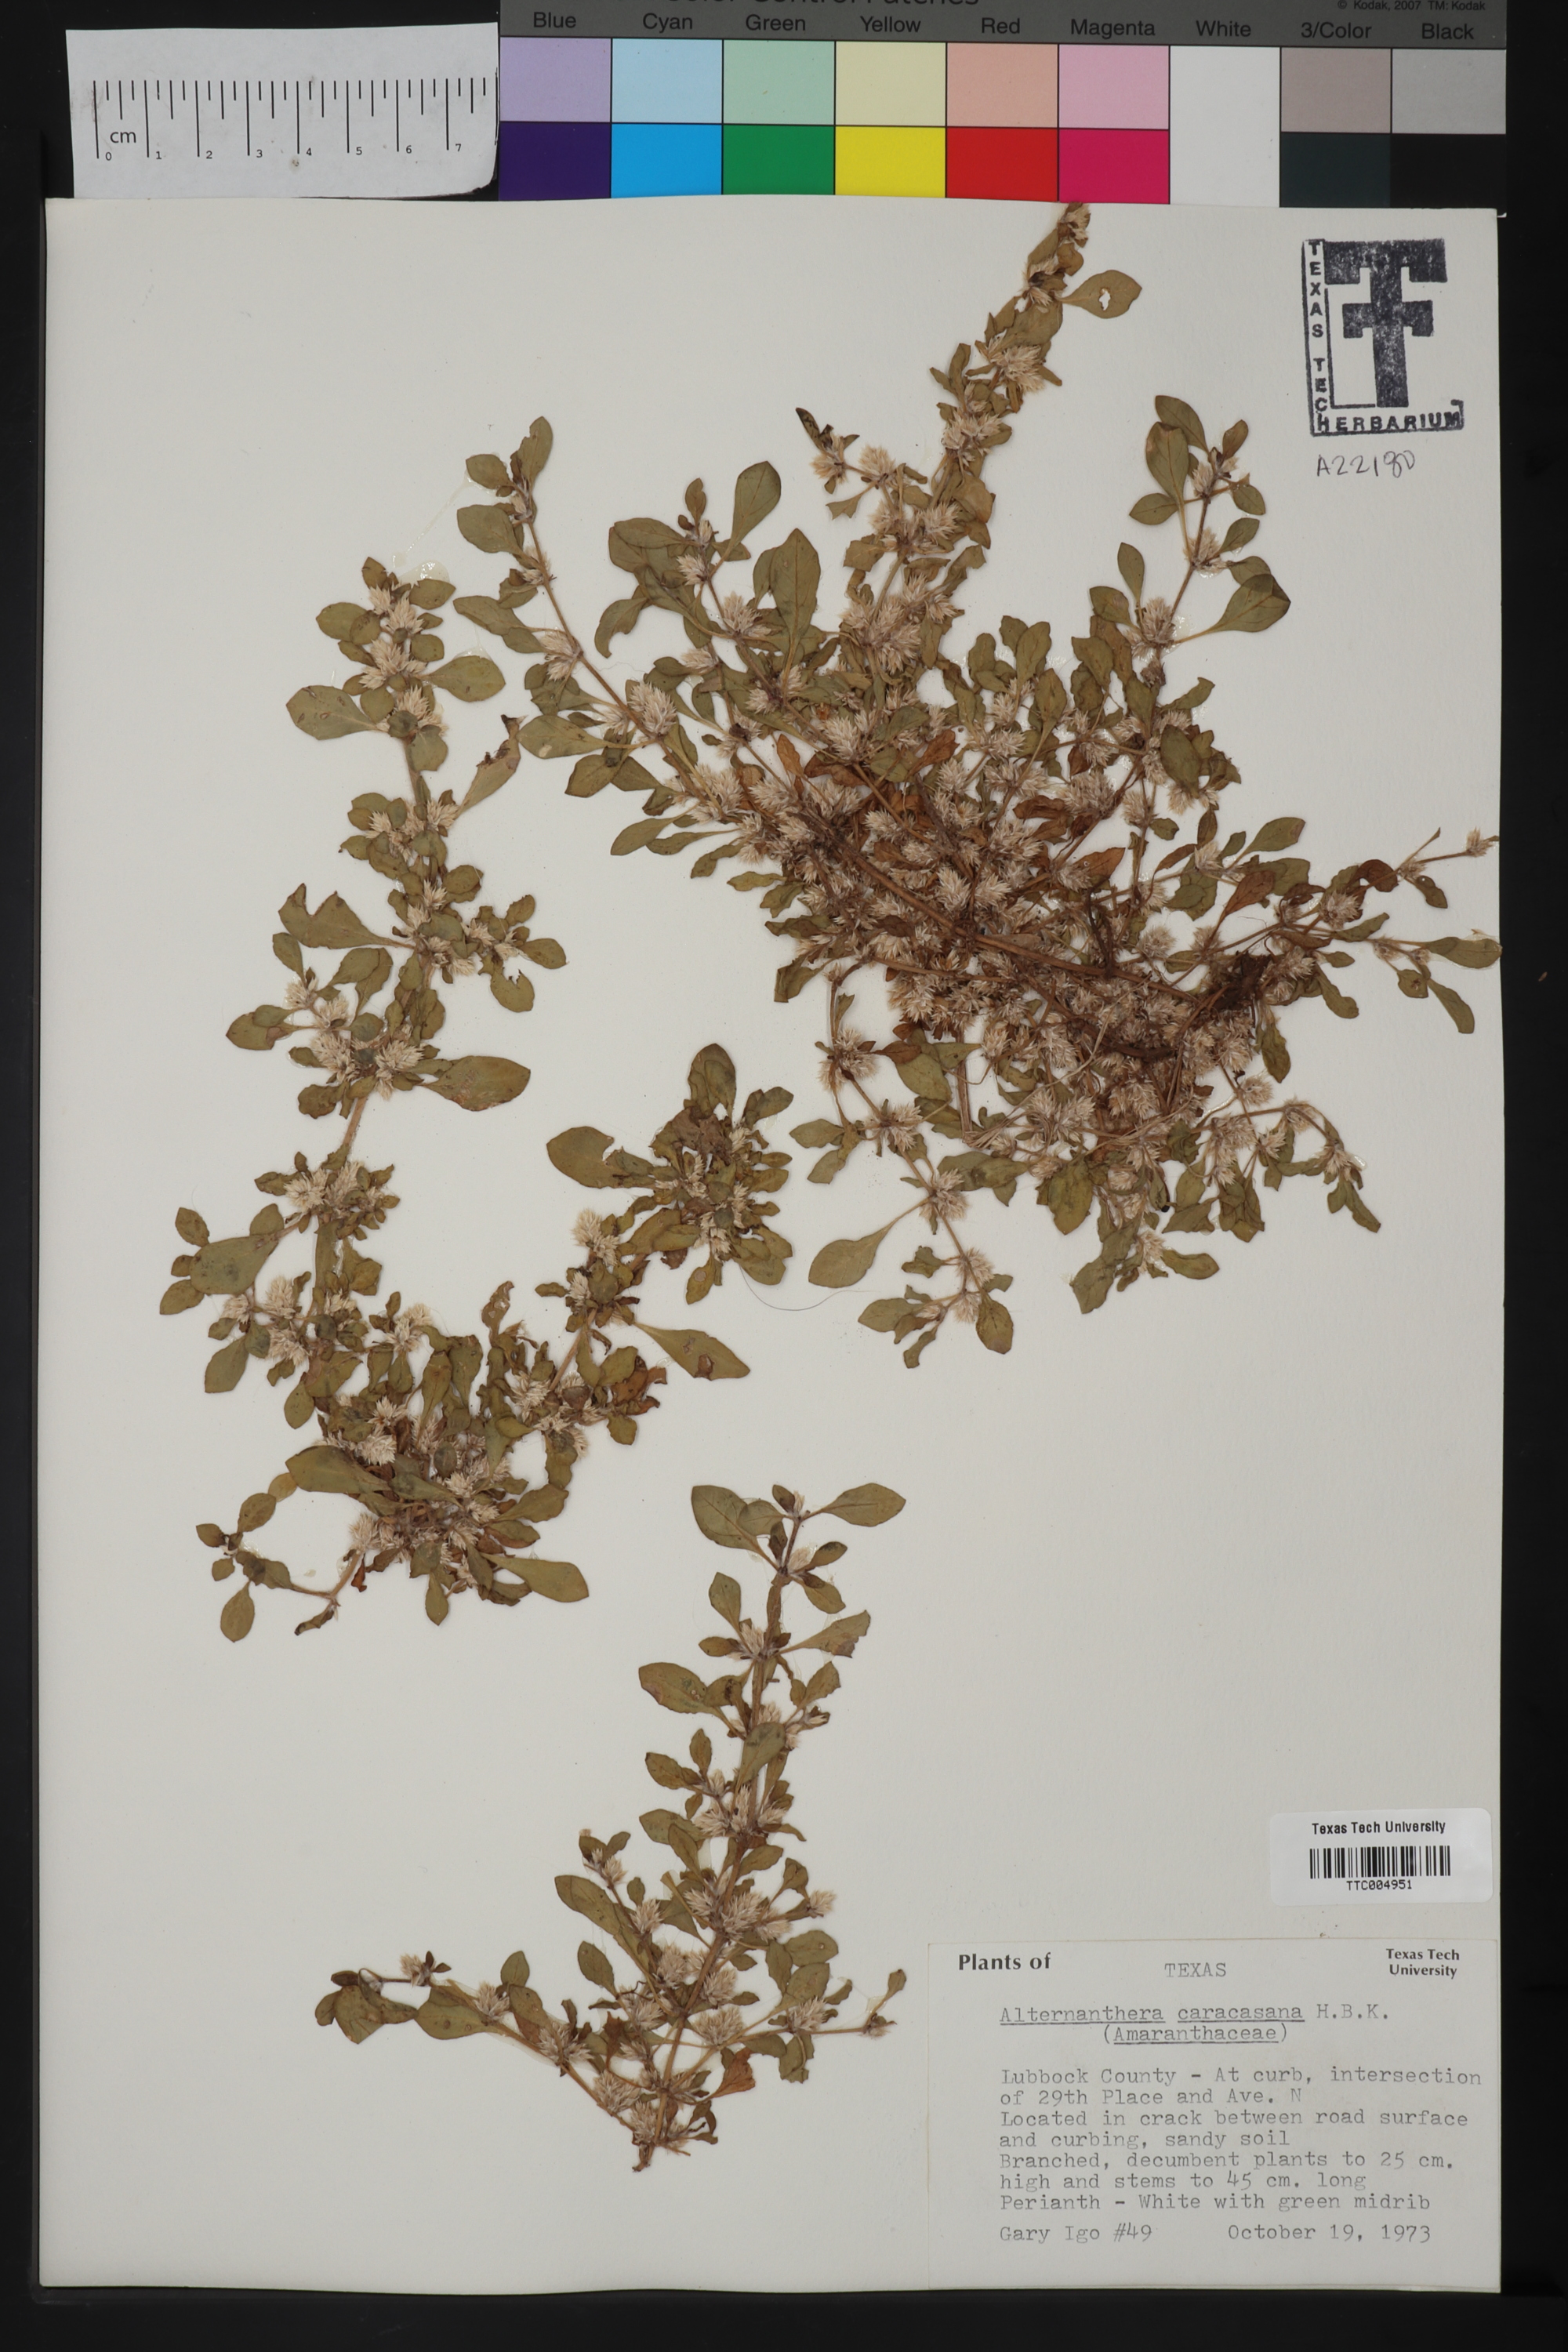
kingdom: Plantae
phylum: Tracheophyta
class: Magnoliopsida
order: Caryophyllales
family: Amaranthaceae
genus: Alternanthera
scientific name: Alternanthera caracasana
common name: Washerwoman
